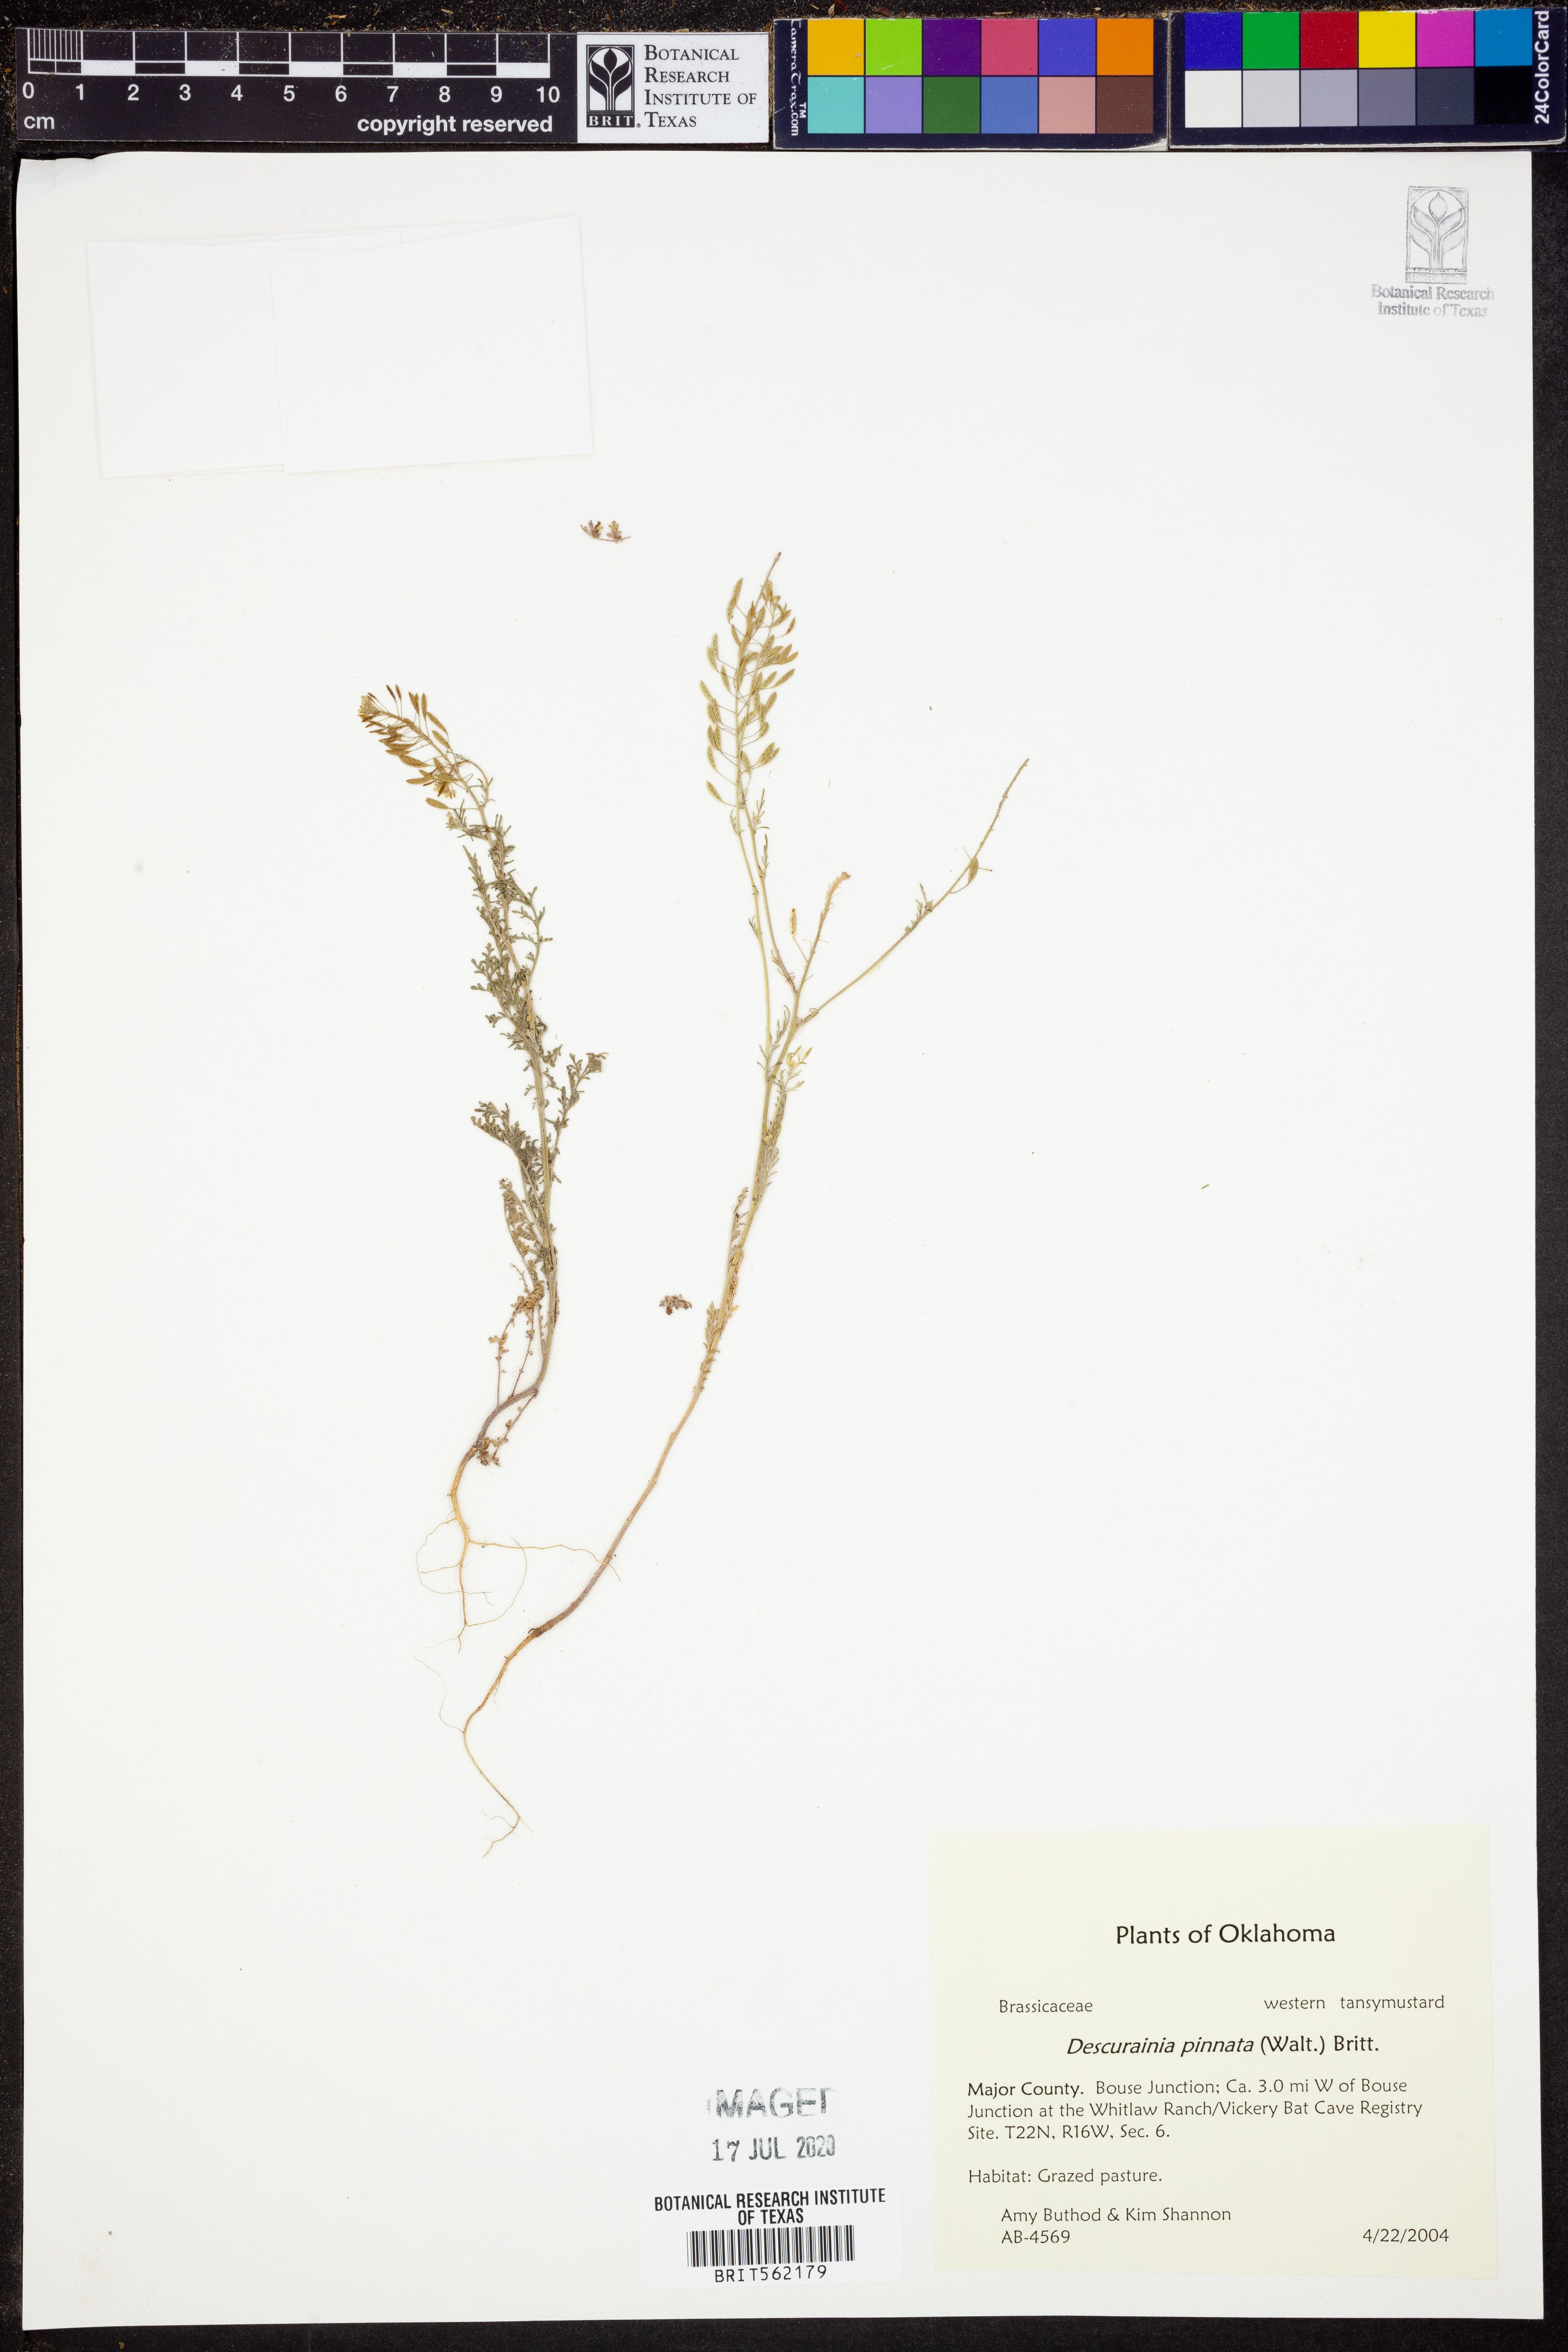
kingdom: Plantae
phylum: Tracheophyta
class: Magnoliopsida
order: Brassicales
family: Brassicaceae
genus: Descurainia
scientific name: Descurainia pinnata
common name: Western tansy mustard
